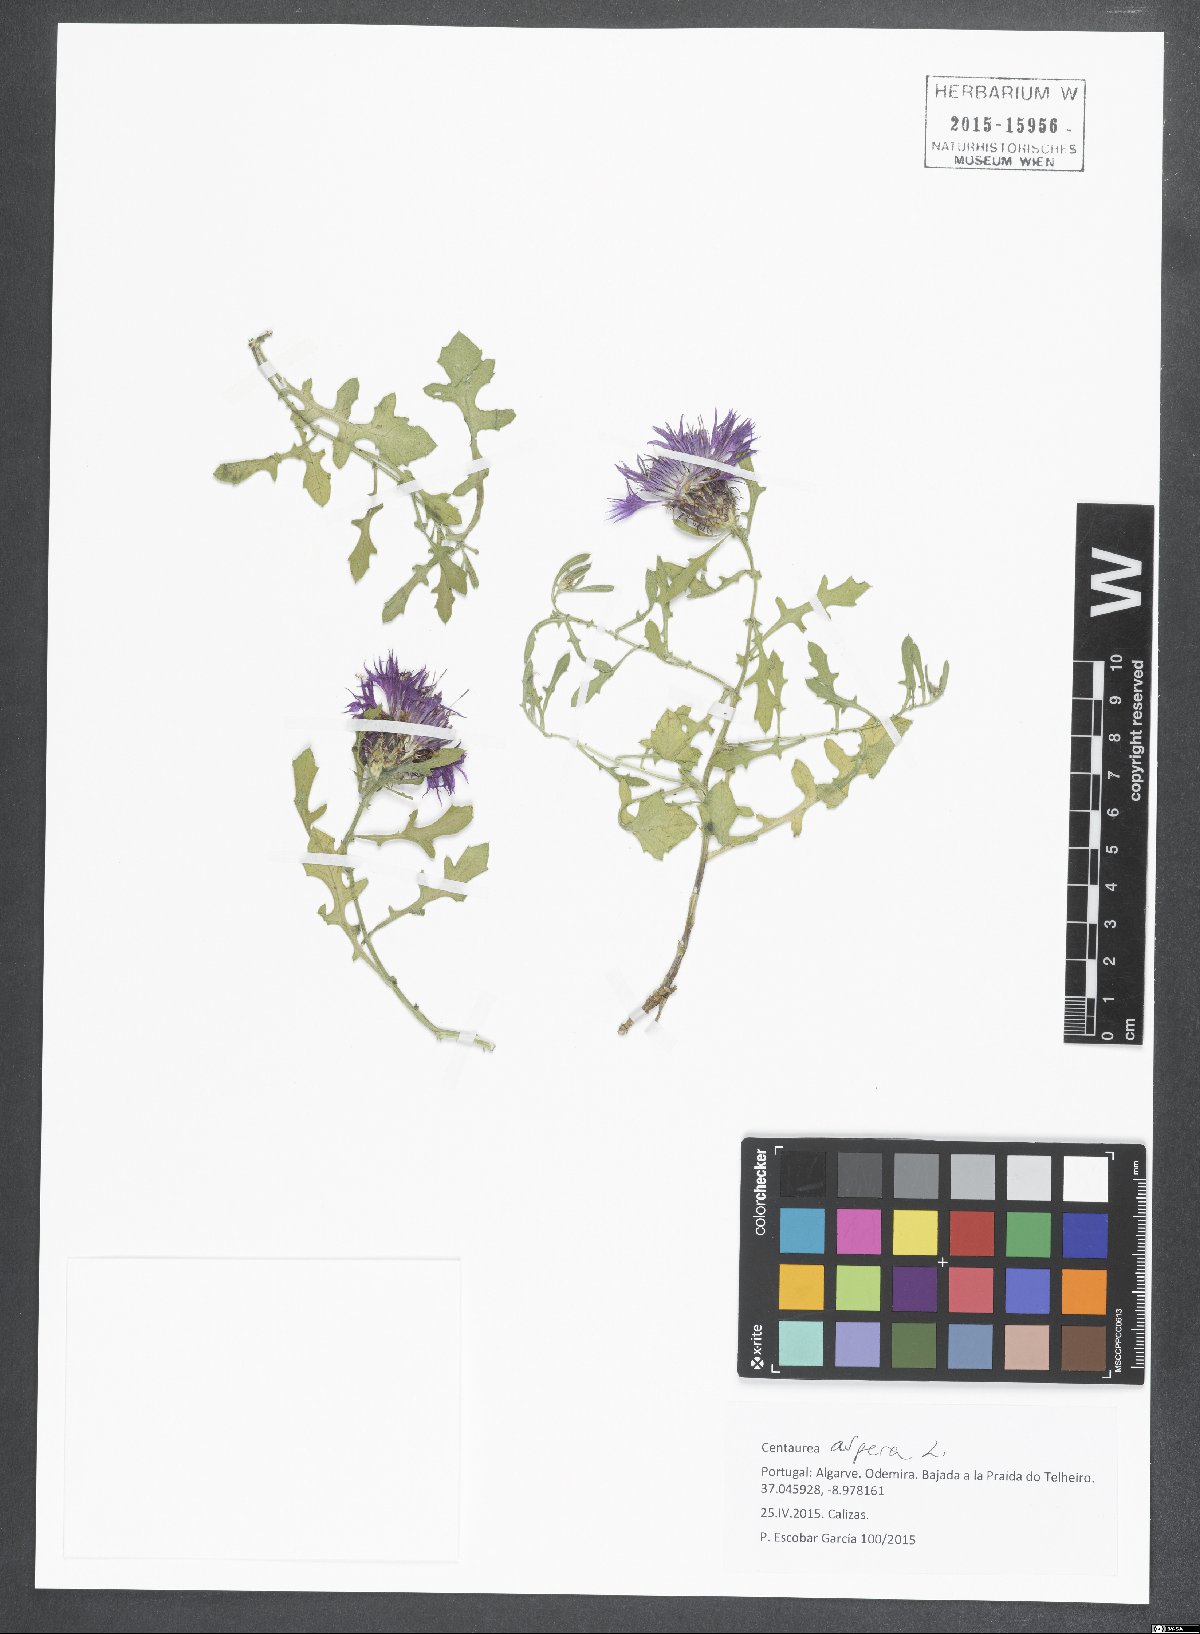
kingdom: Plantae
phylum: Tracheophyta
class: Magnoliopsida
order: Asterales
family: Asteraceae
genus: Centaurea
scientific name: Centaurea aspera
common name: Rough star-thistle
